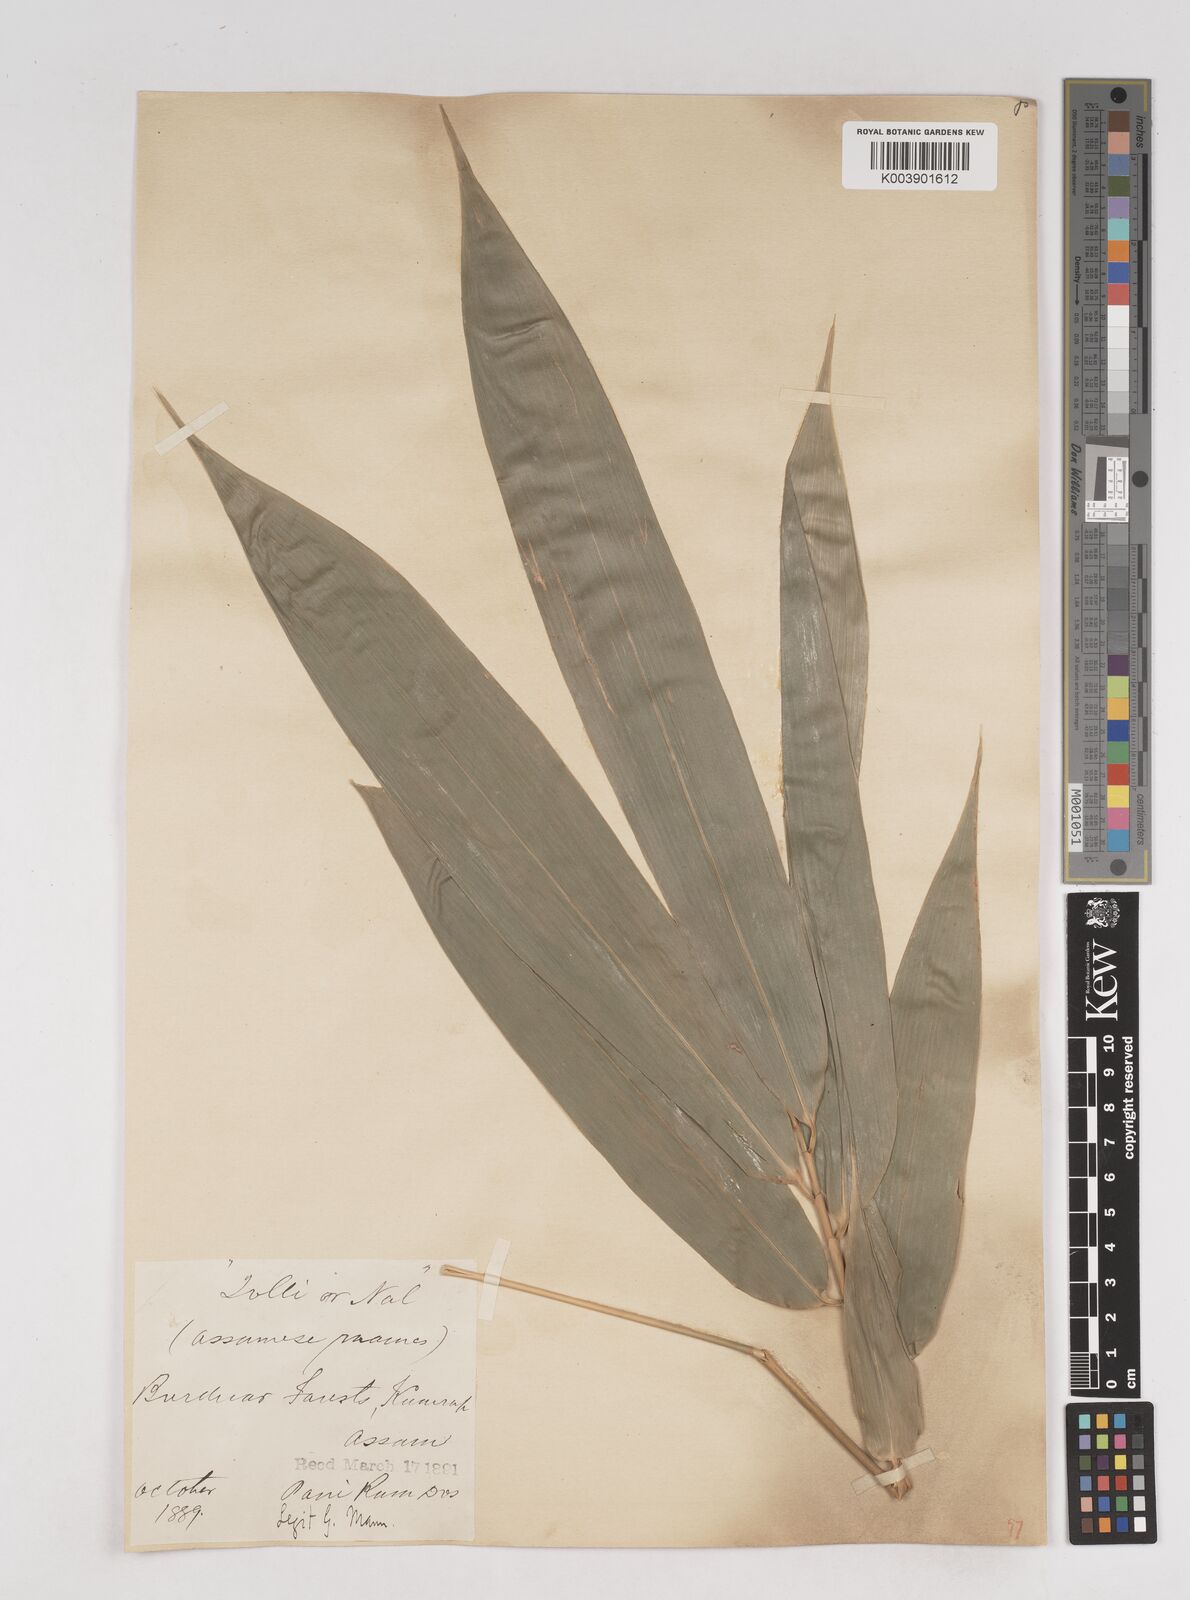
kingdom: Plantae
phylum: Tracheophyta
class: Liliopsida
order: Poales
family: Poaceae
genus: Pseudostachyum
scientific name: Pseudostachyum polymorphum
